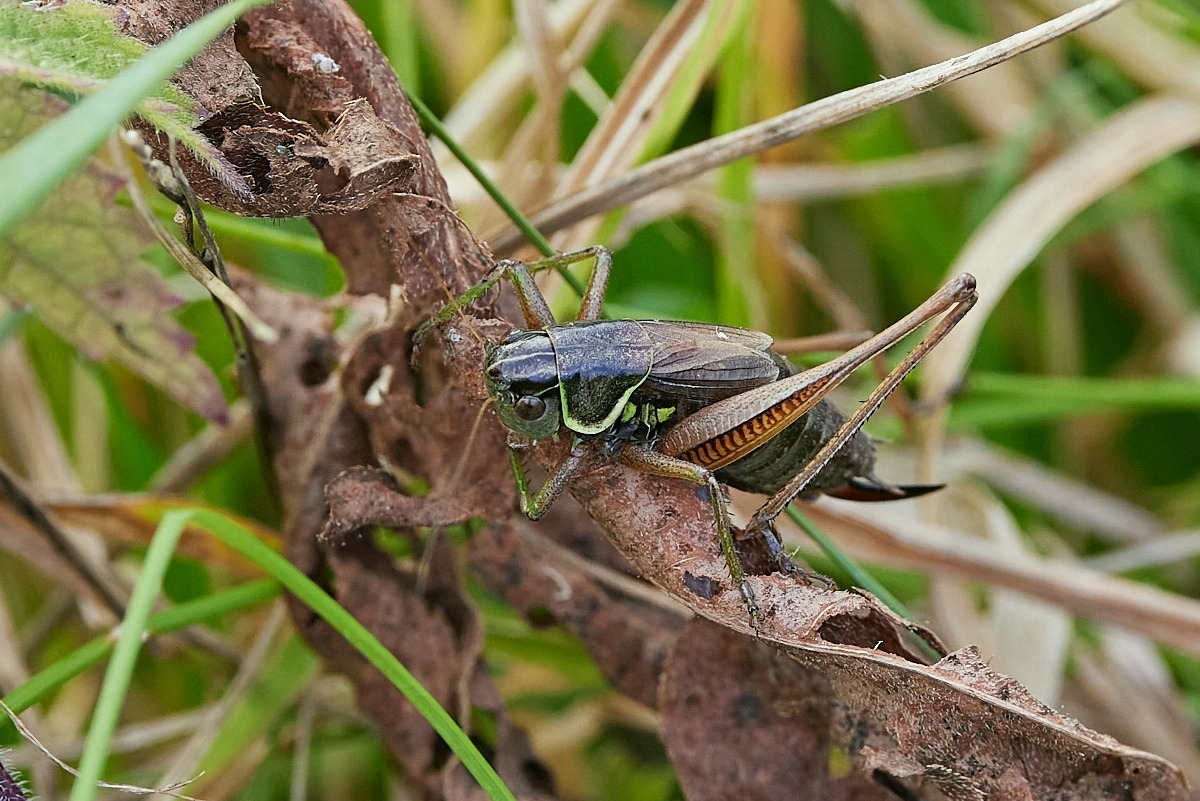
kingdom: Animalia
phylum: Arthropoda
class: Insecta
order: Orthoptera
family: Tettigoniidae
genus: Roeseliana
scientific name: Roeseliana roeselii
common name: Cikadegræshoppe
